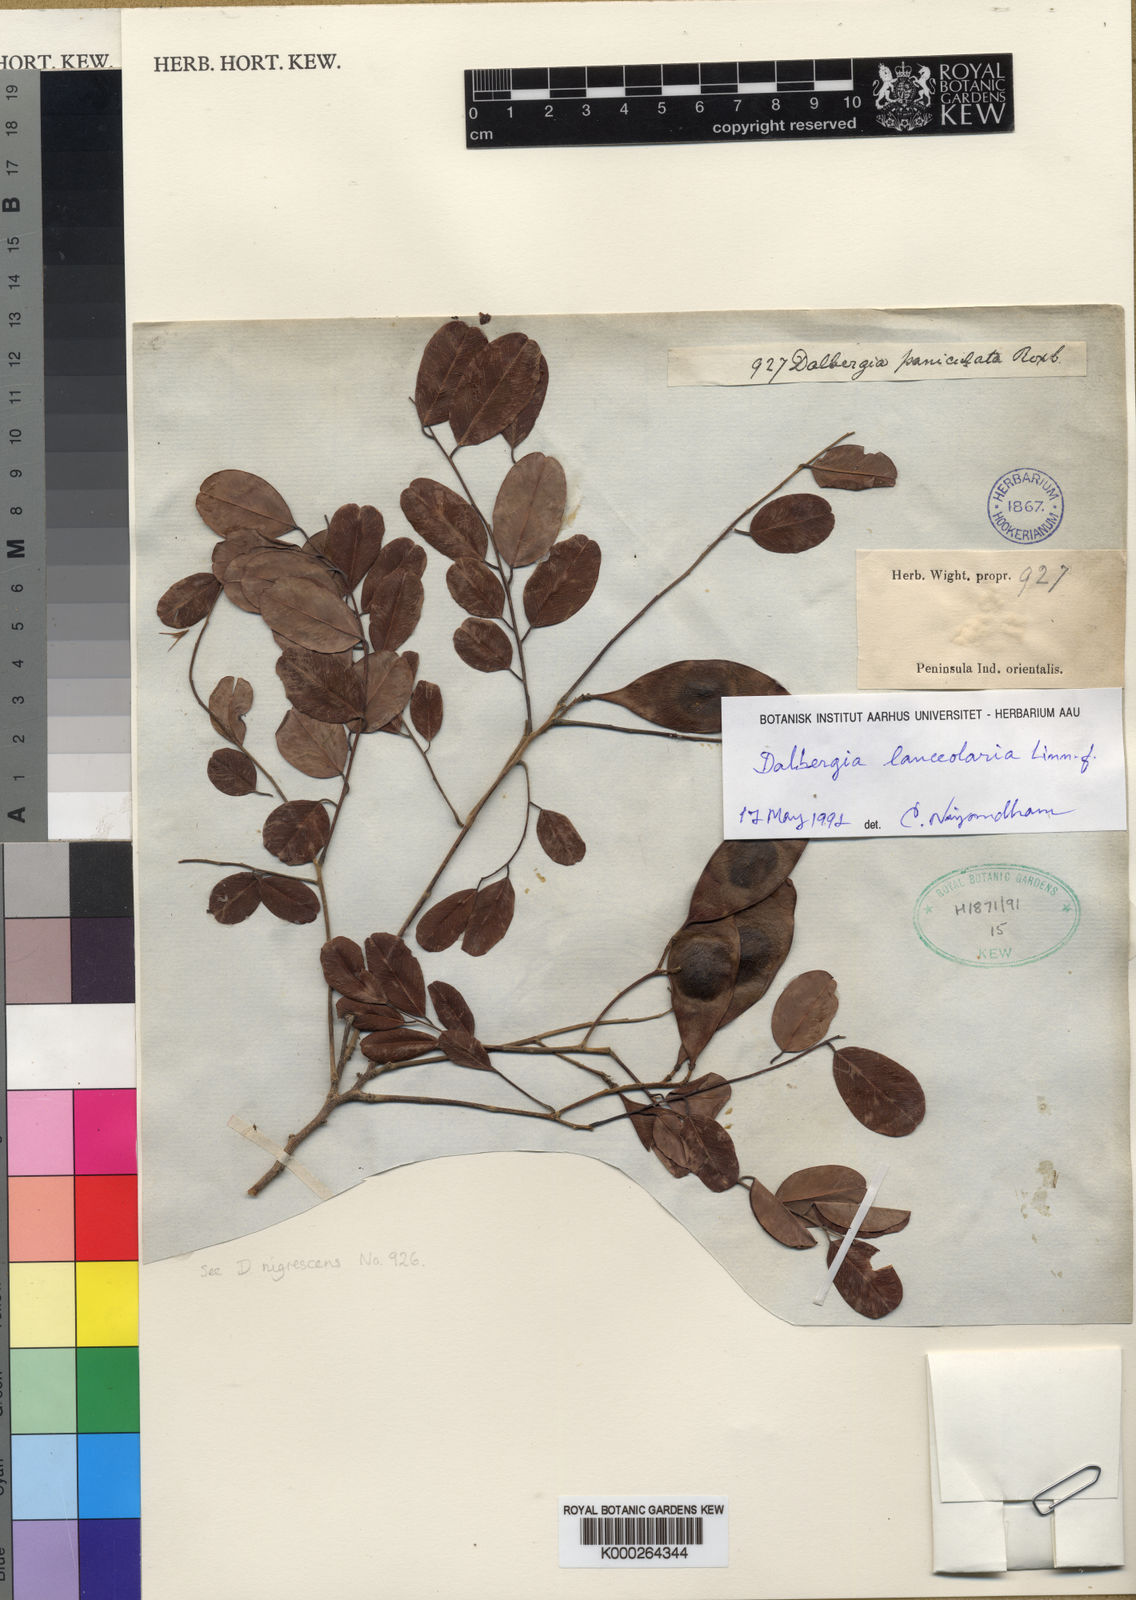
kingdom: Plantae
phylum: Tracheophyta
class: Magnoliopsida
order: Fabales
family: Fabaceae
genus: Dalbergia
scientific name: Dalbergia lanceolaria
